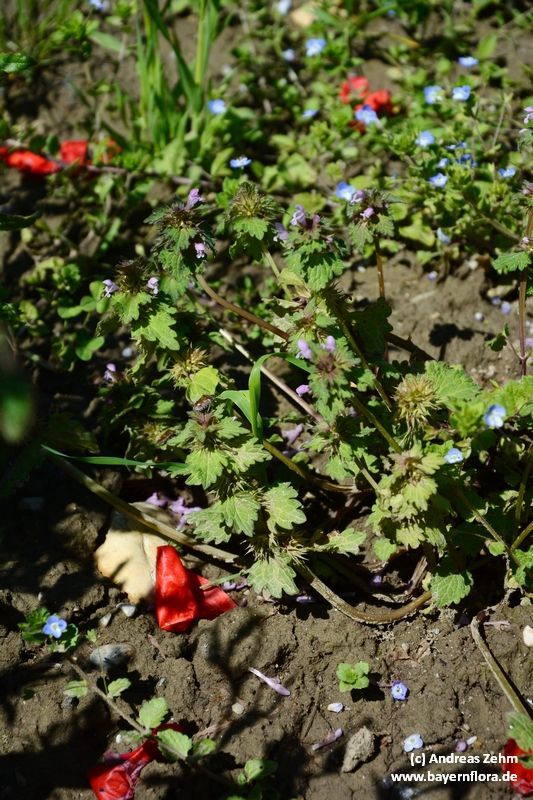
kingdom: Plantae
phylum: Tracheophyta
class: Magnoliopsida
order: Lamiales
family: Lamiaceae
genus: Lamium
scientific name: Lamium amplexicaule
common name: Henbit dead-nettle
